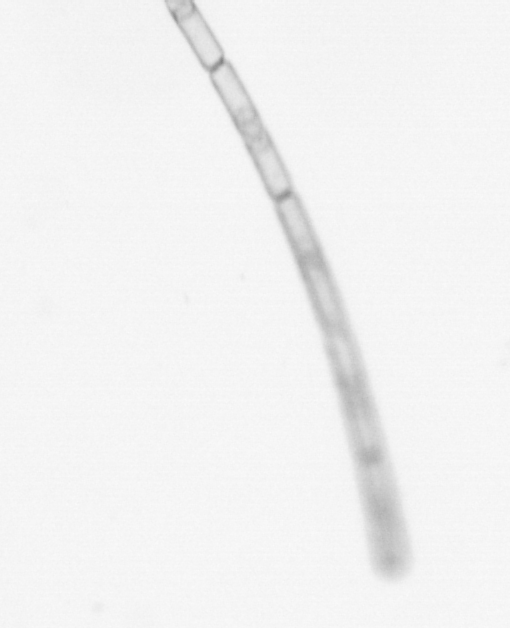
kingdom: Chromista
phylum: Ochrophyta
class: Bacillariophyceae
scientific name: Bacillariophyceae
